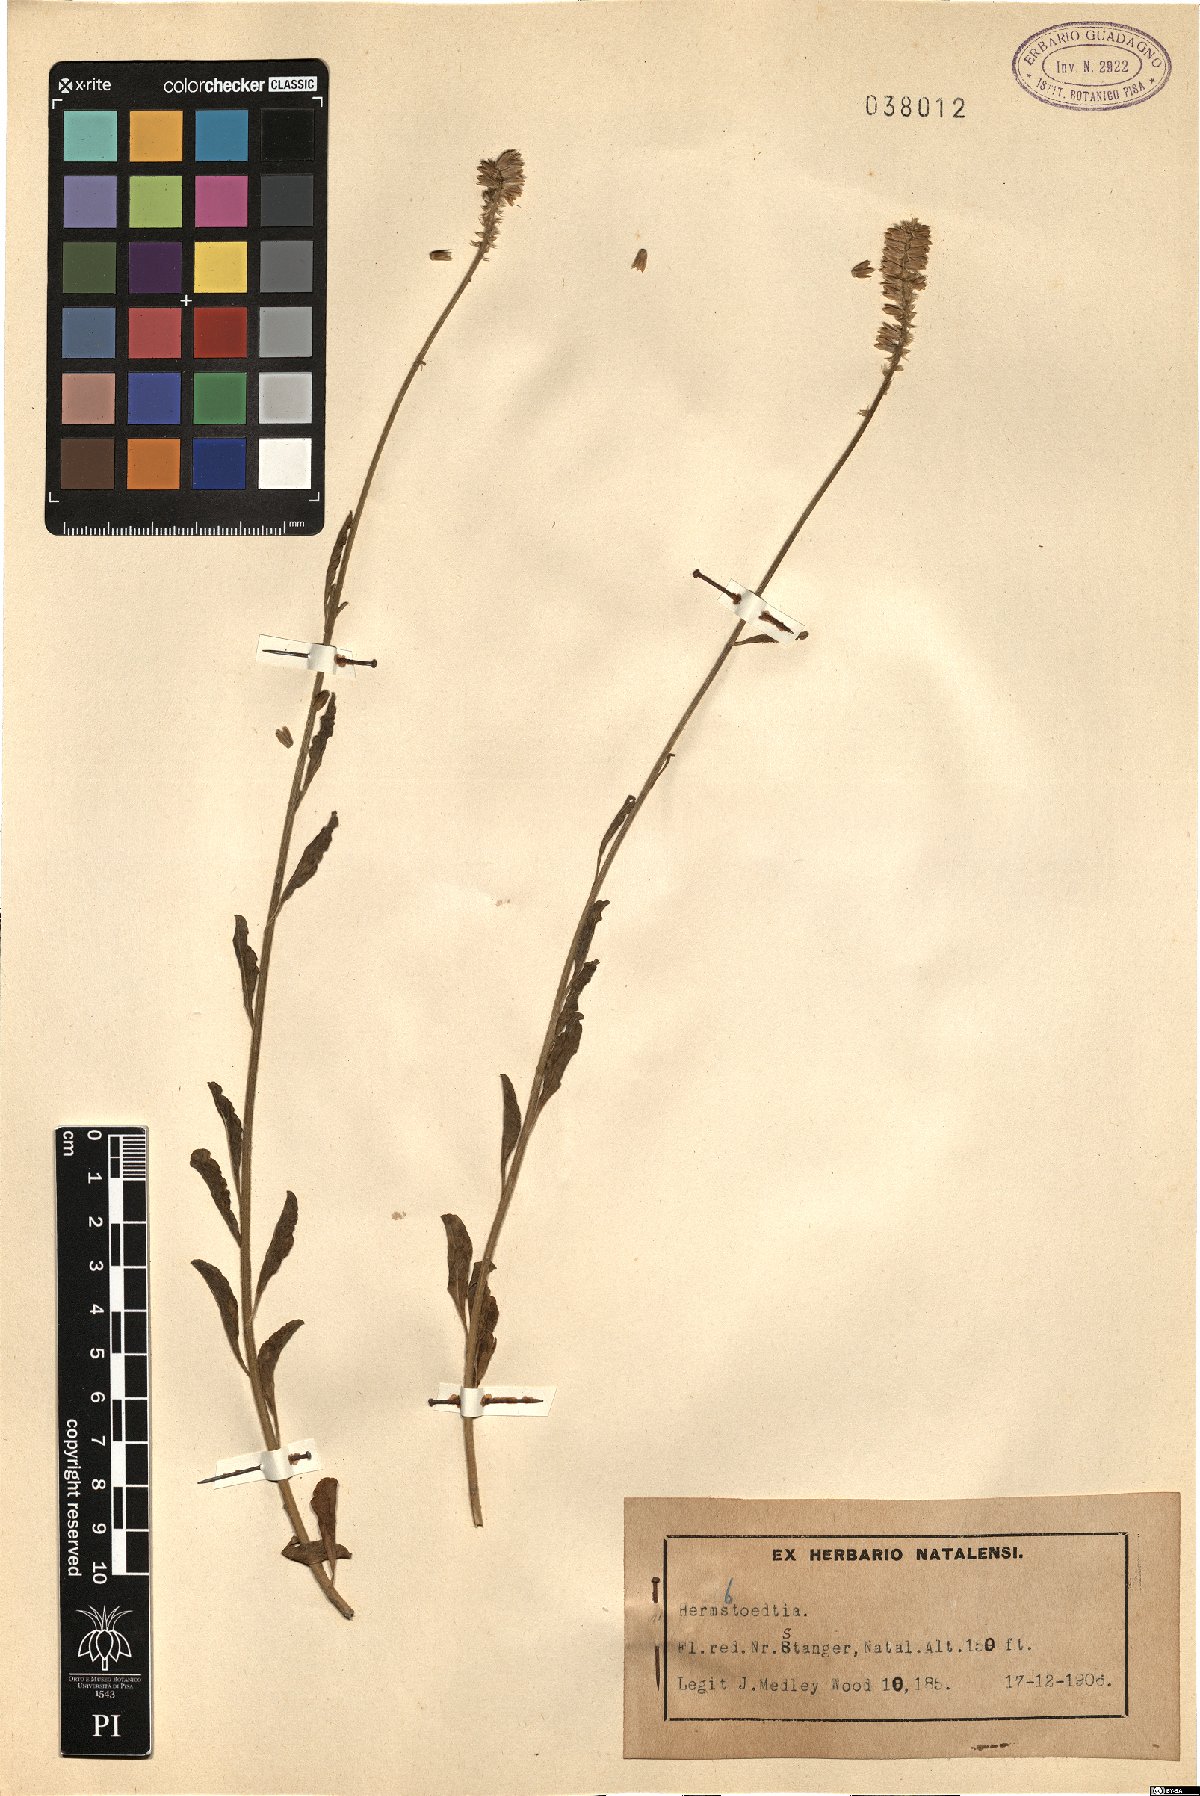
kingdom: Plantae
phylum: Tracheophyta
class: Magnoliopsida
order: Caryophyllales
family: Amaranthaceae
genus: Hermbstaedtia
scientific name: Hermbstaedtia
